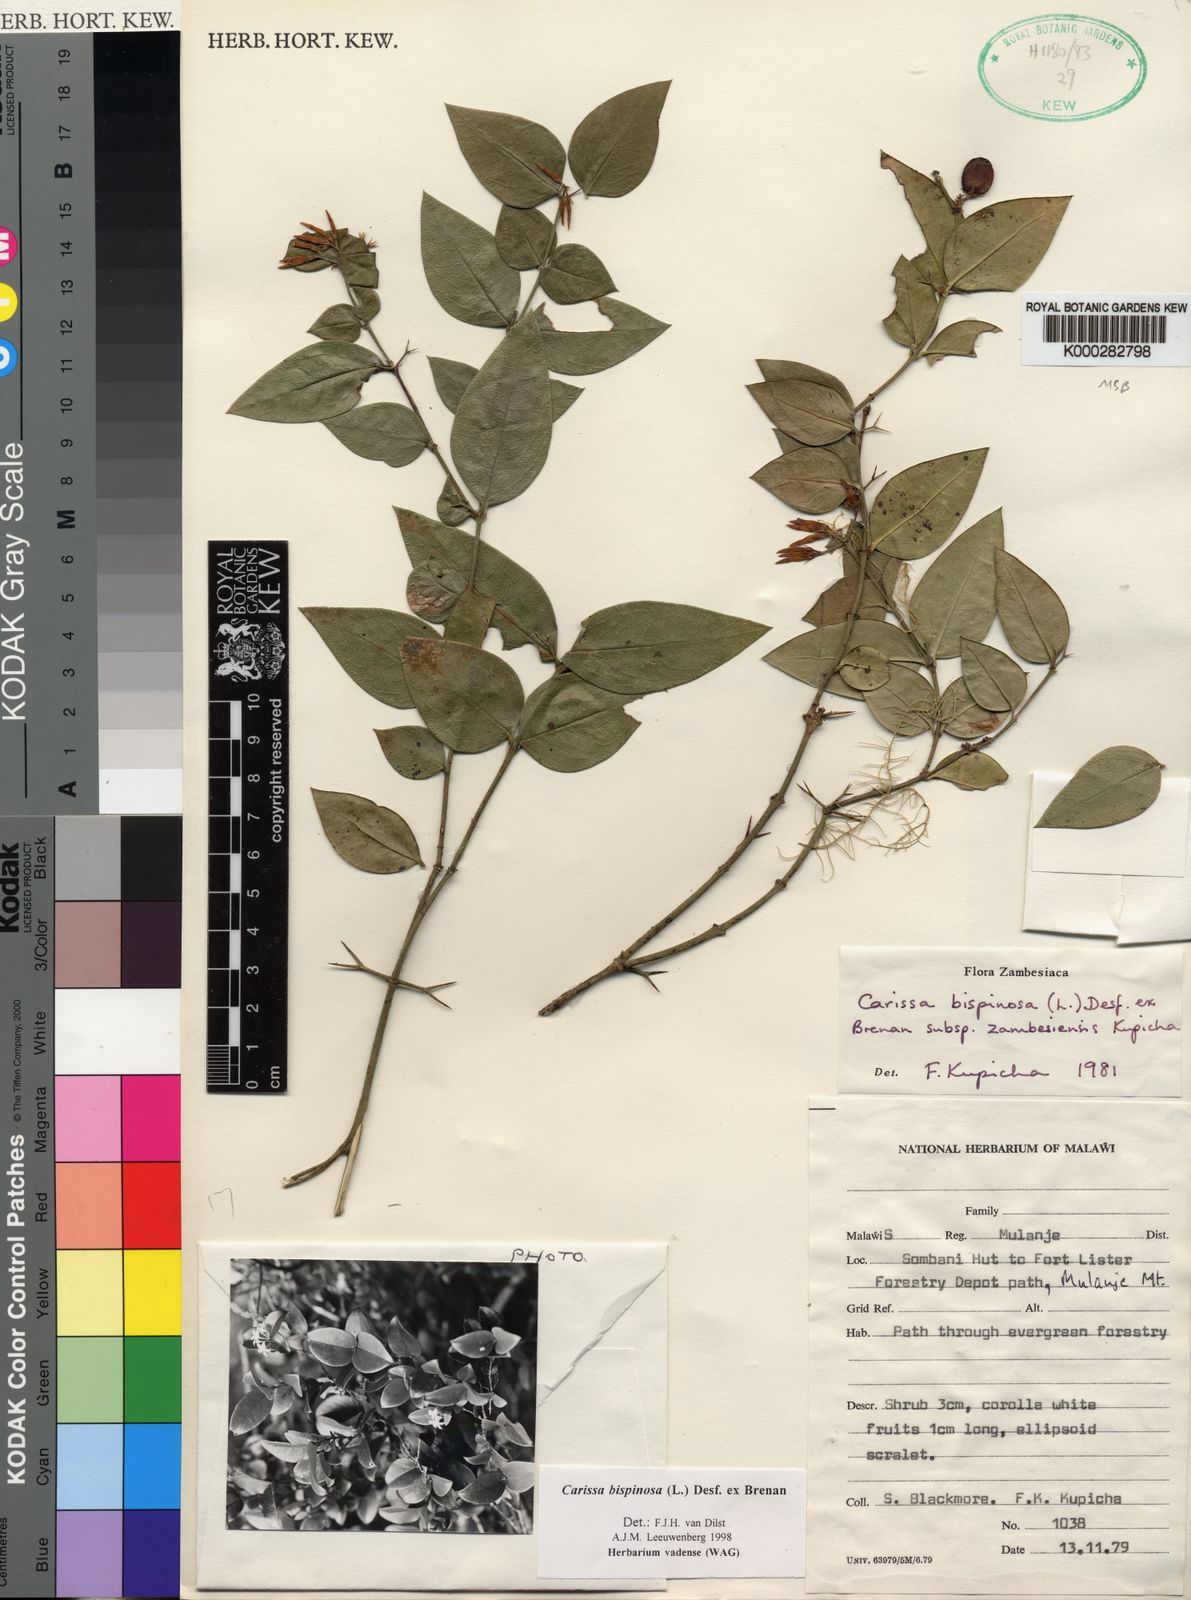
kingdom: Plantae
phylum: Tracheophyta
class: Magnoliopsida
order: Gentianales
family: Apocynaceae
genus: Carissa
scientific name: Carissa bispinosa
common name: Forest num-num
